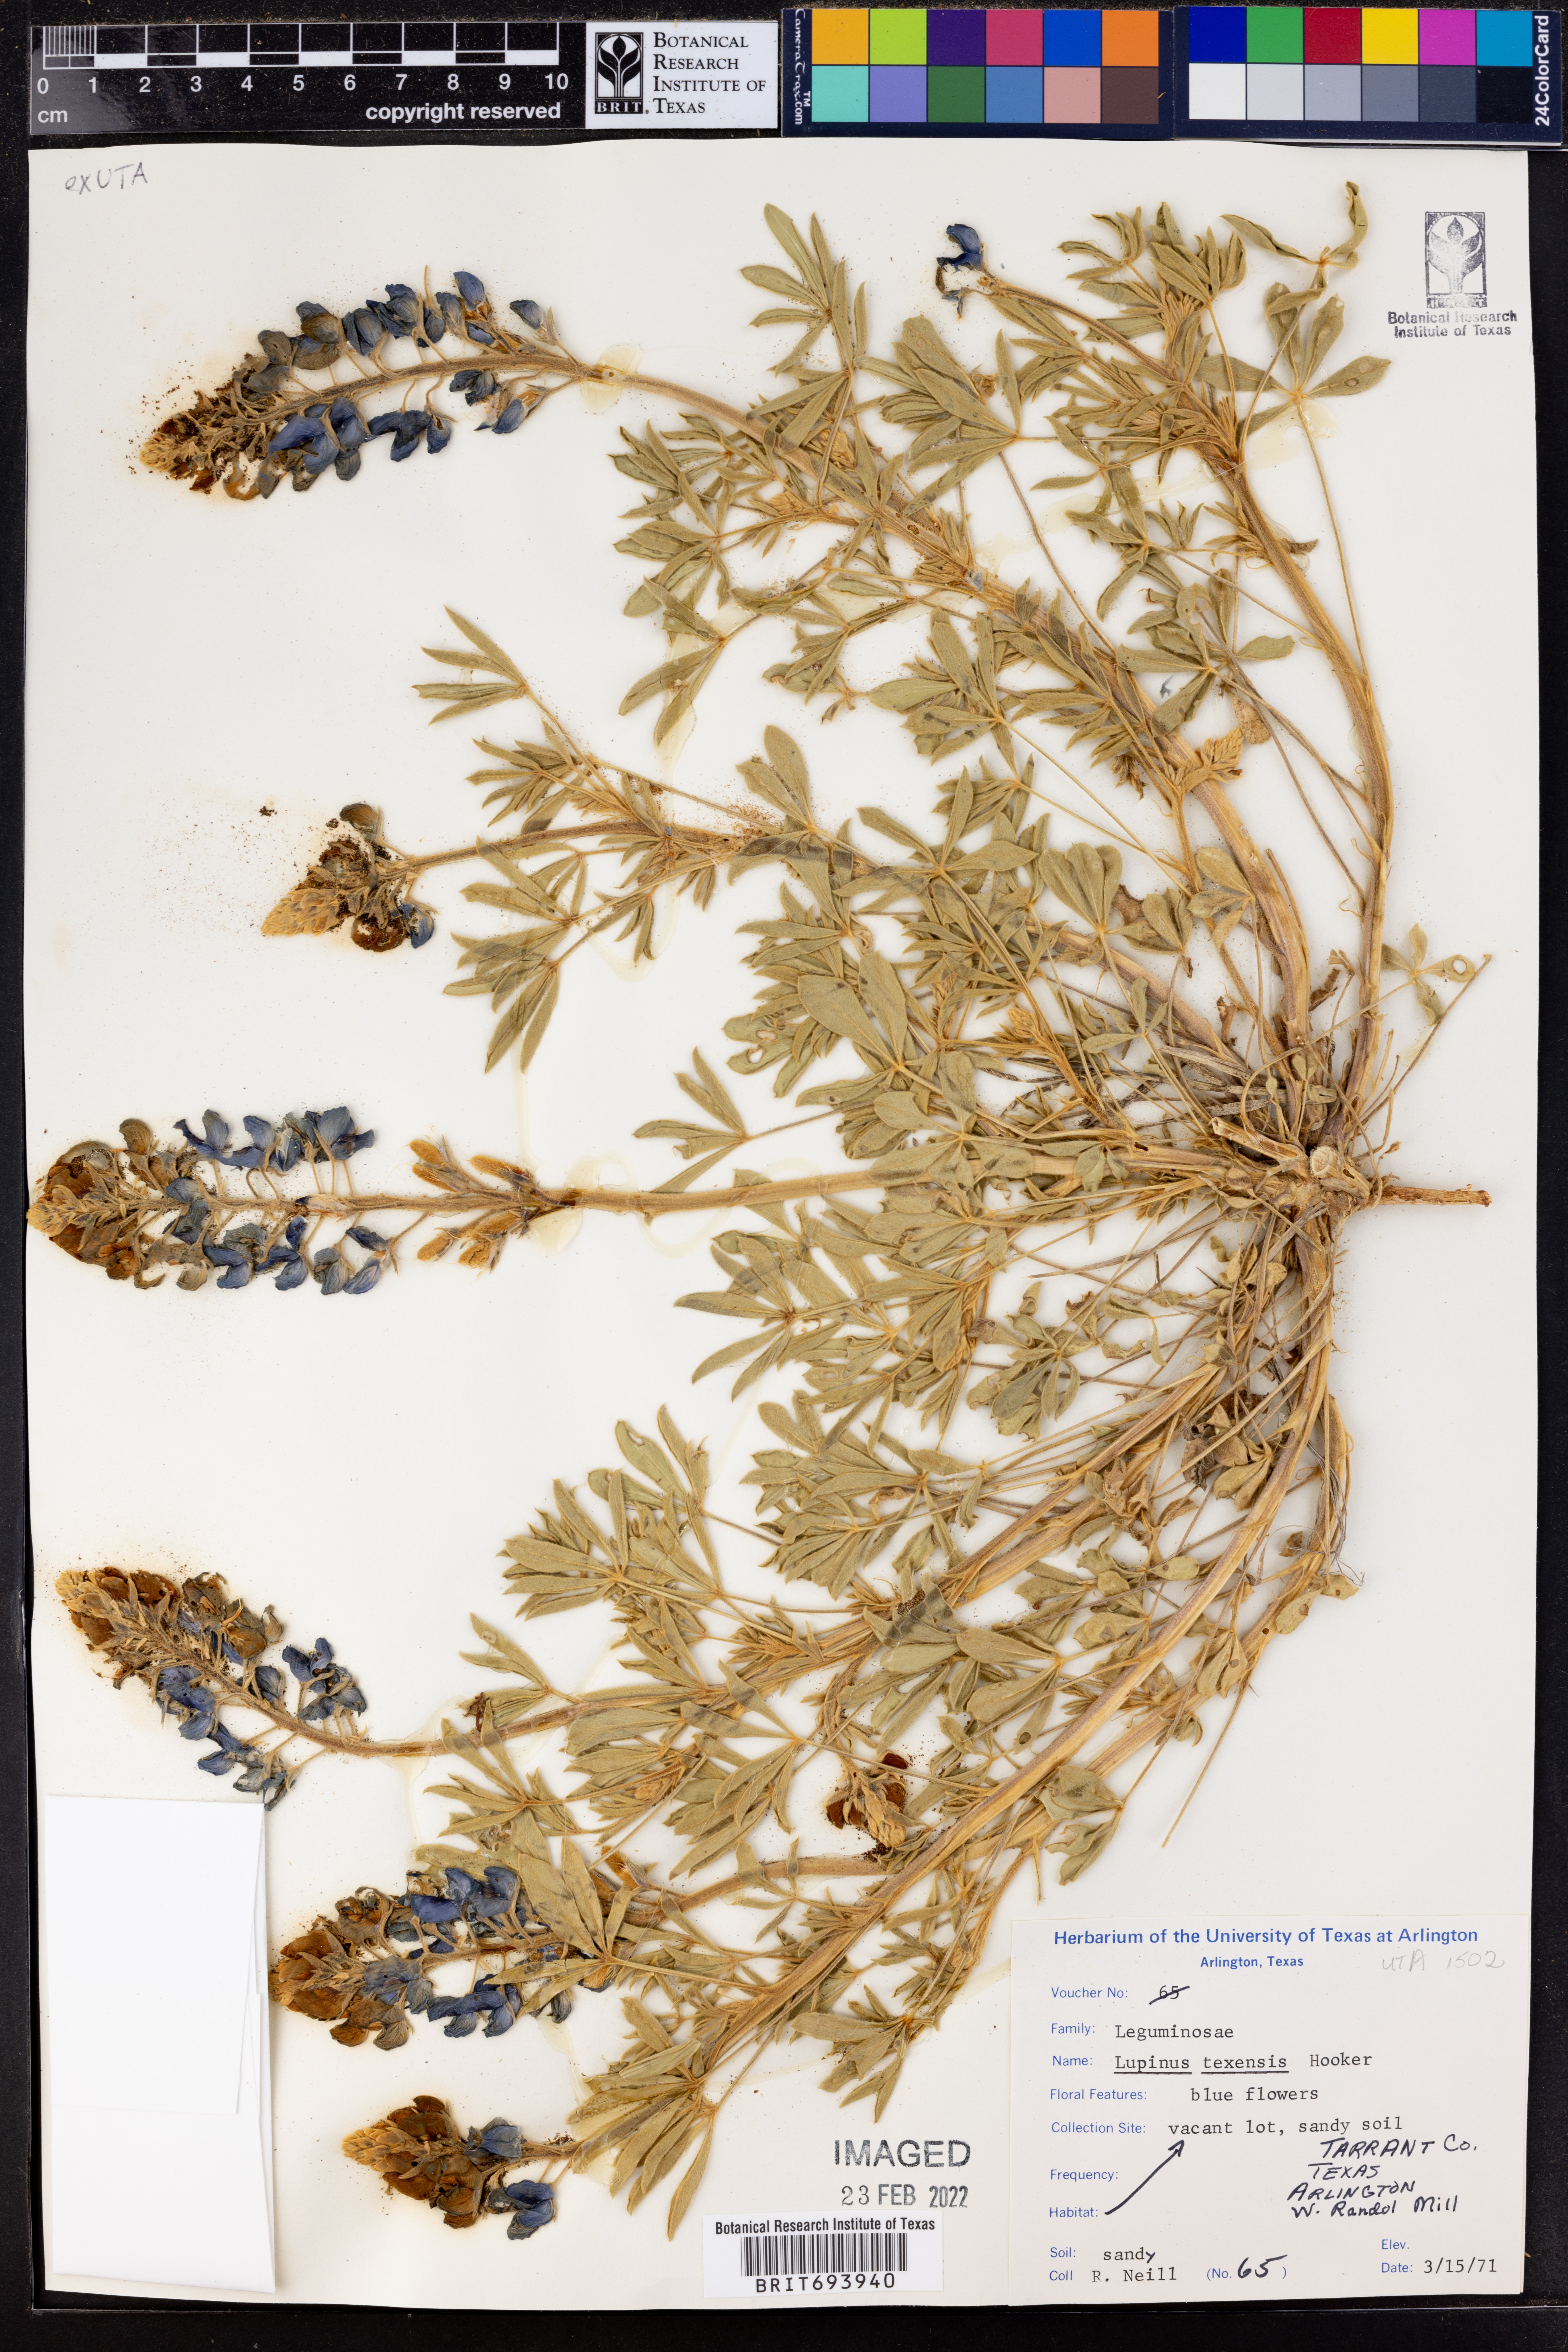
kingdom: Plantae
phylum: Tracheophyta
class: Magnoliopsida
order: Fabales
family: Fabaceae
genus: Lupinus
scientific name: Lupinus texensis
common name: Texas bluebonnet
